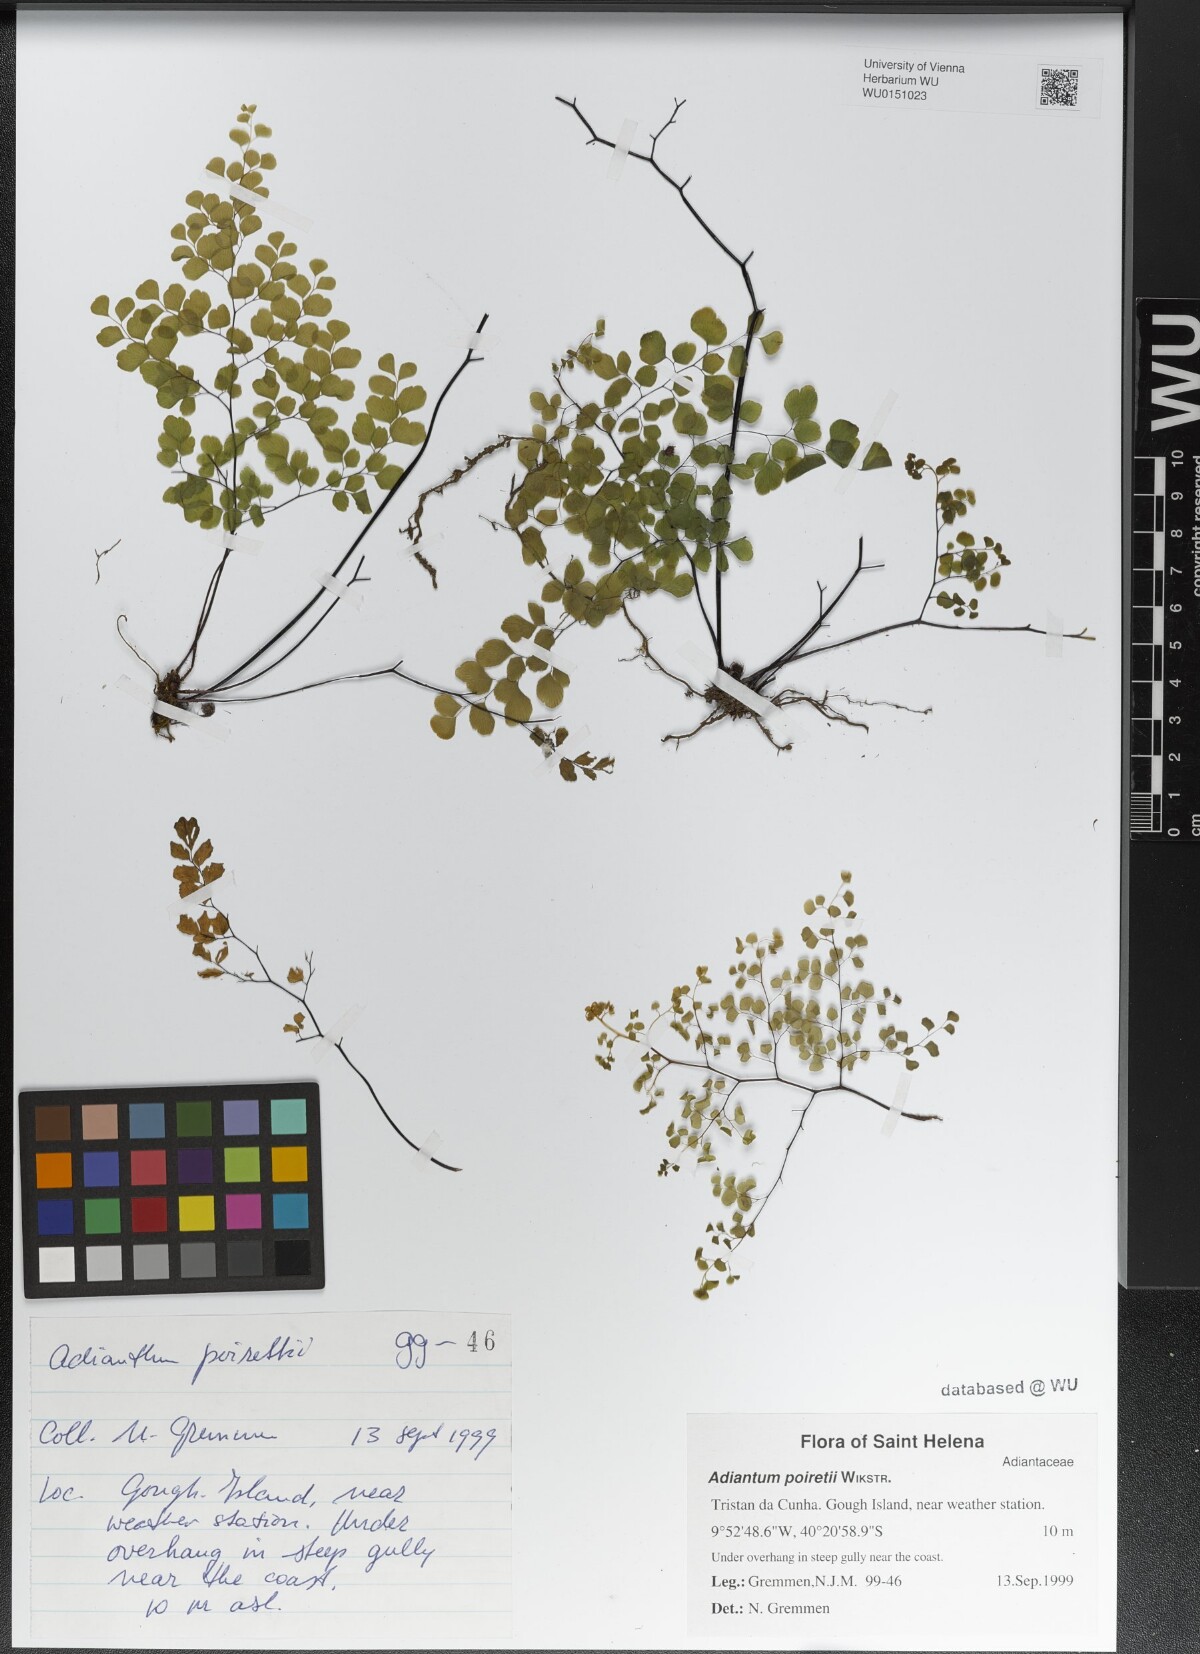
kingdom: Plantae
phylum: Tracheophyta
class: Polypodiopsida
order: Polypodiales
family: Pteridaceae
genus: Adiantum
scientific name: Adiantum poiretii
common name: Mexican maidenhair
